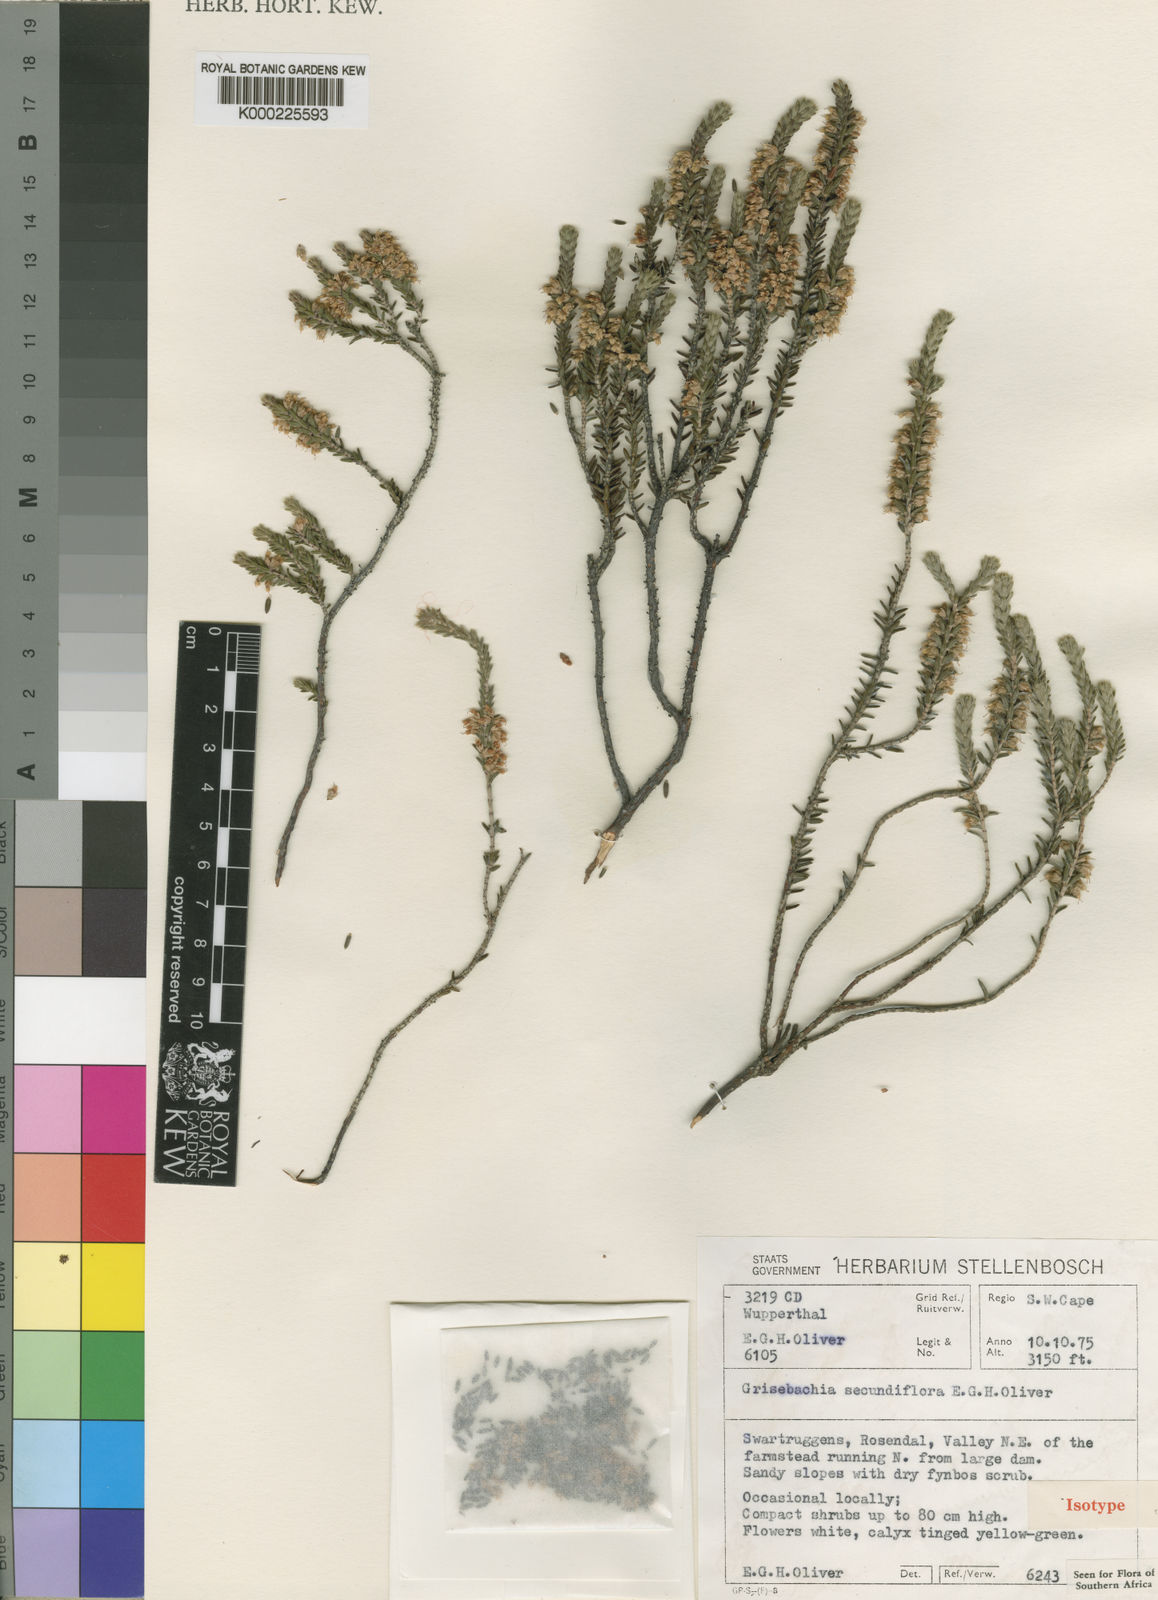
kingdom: Plantae
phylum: Tracheophyta
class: Magnoliopsida
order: Ericales
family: Ericaceae
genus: Erica
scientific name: Erica lateriflora
